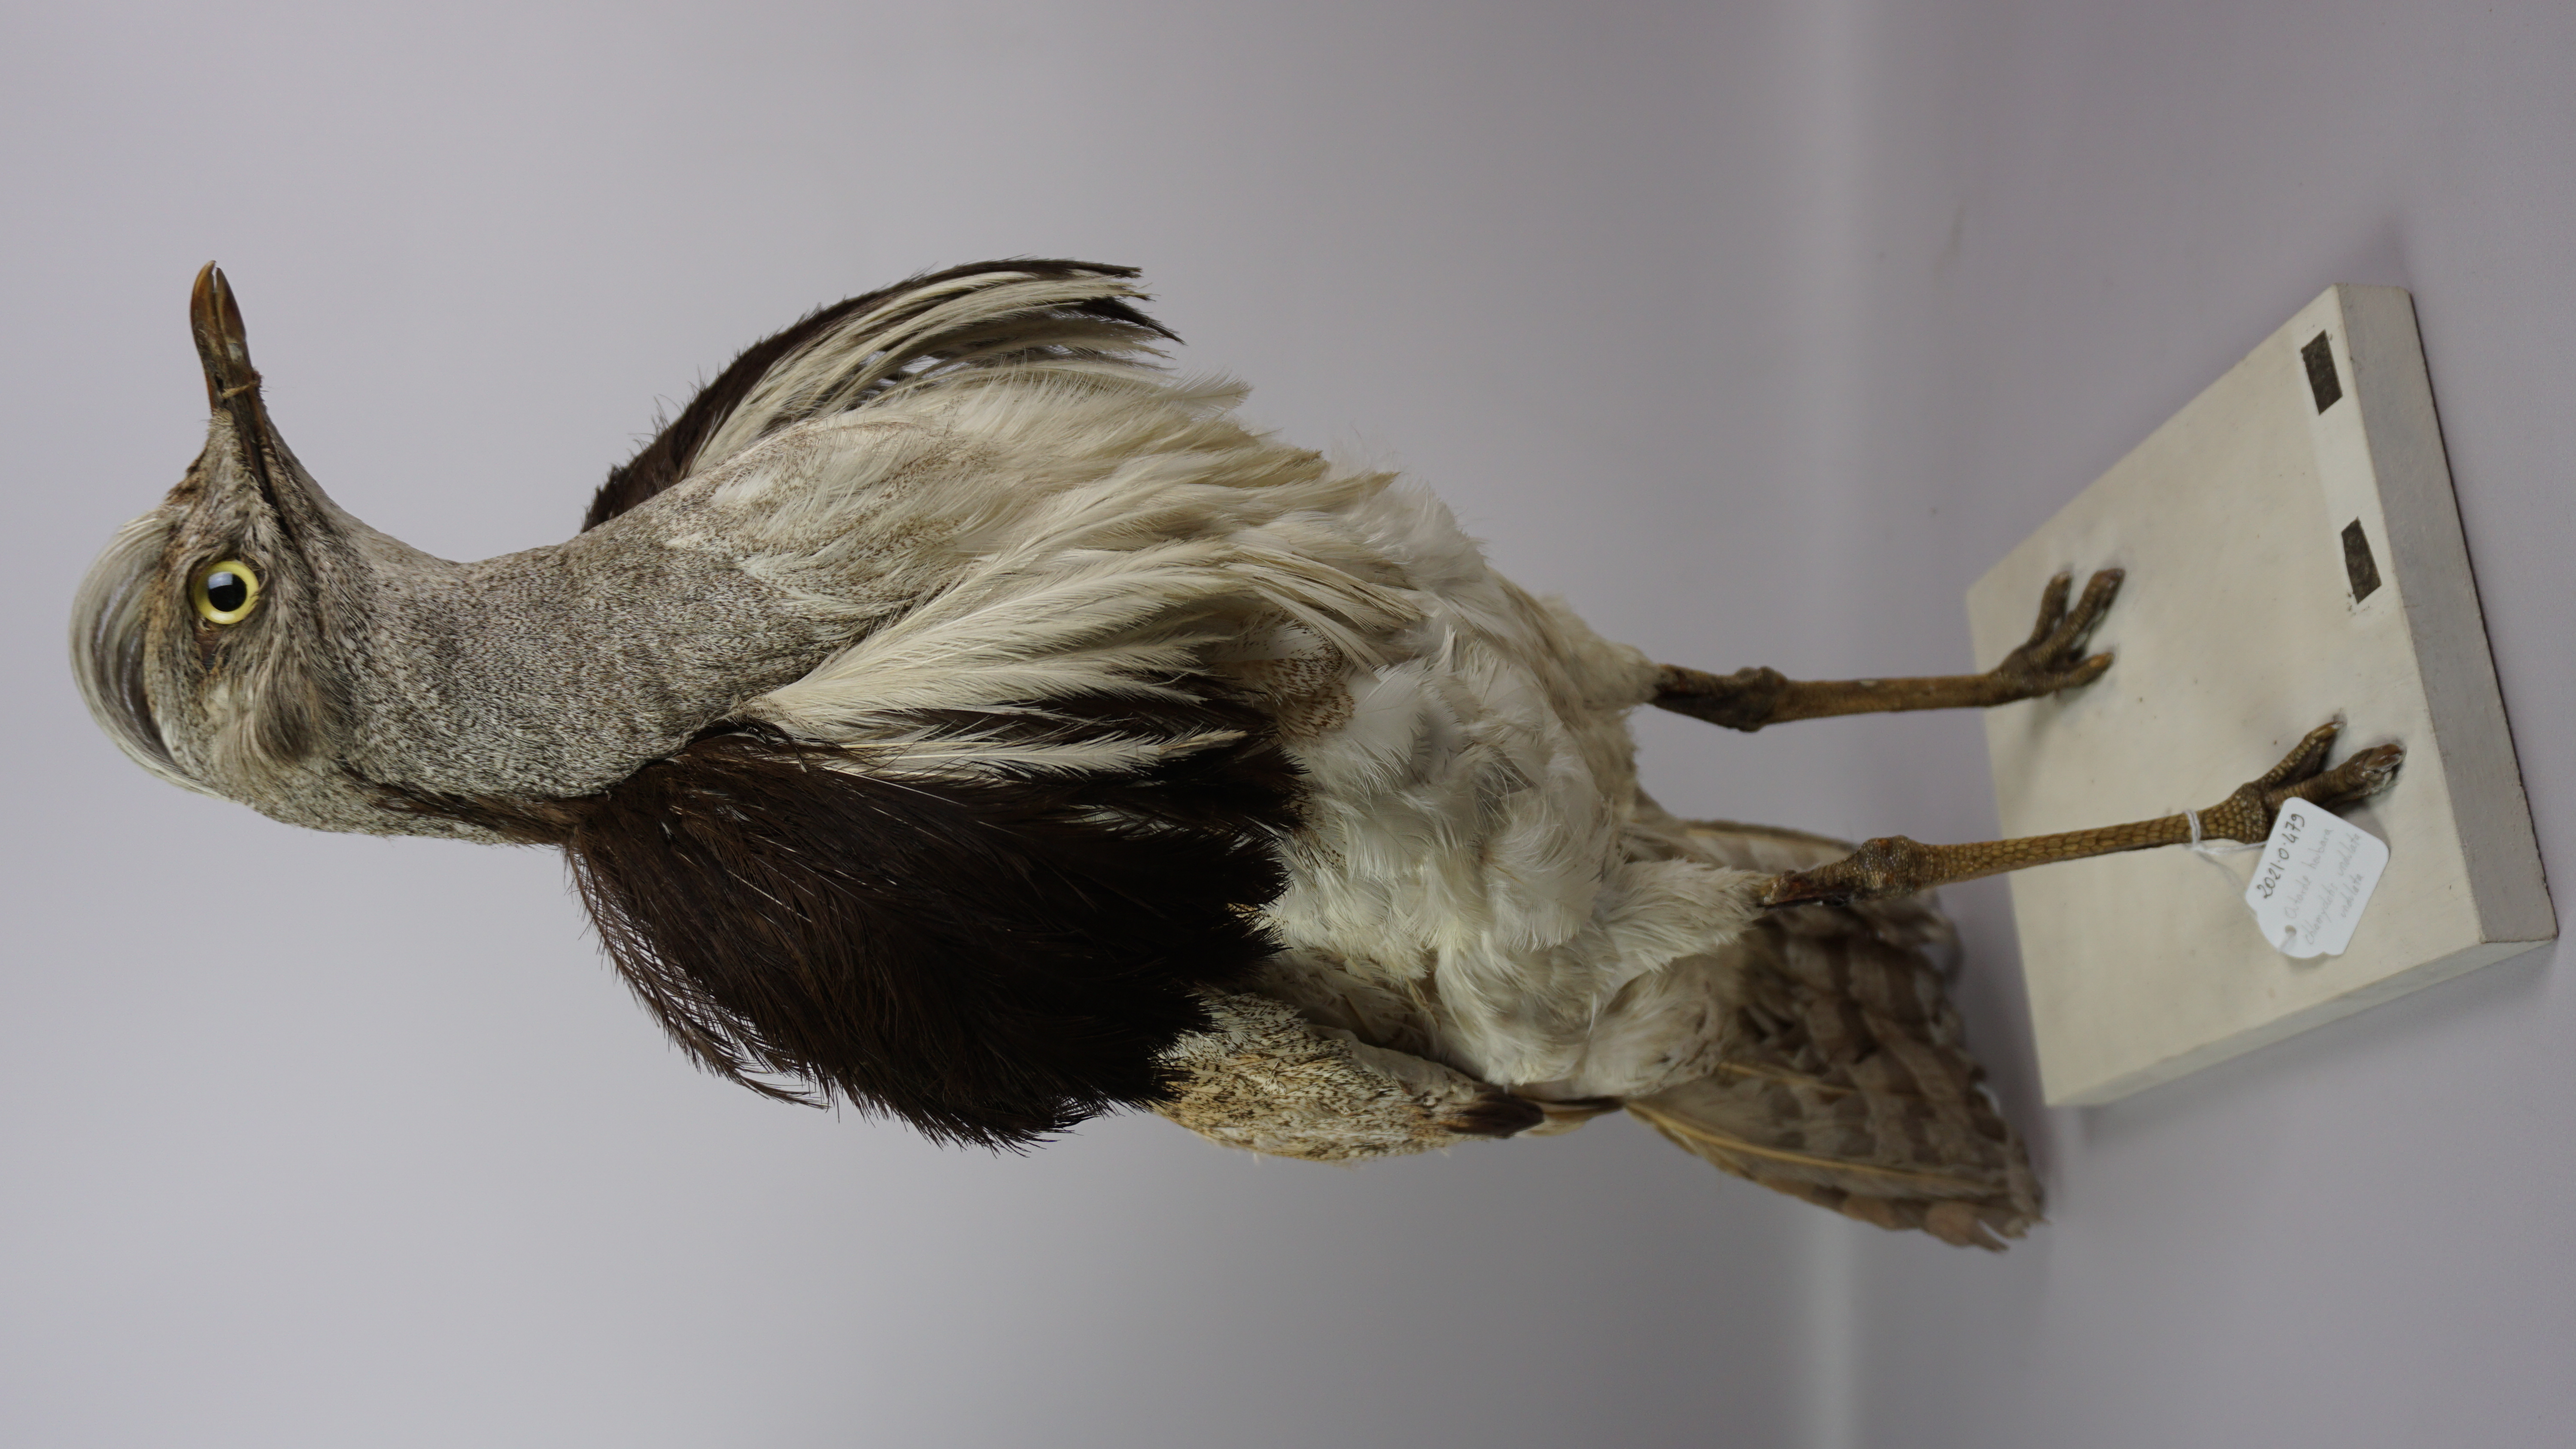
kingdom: Animalia
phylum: Chordata
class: Aves
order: Otidiformes
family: Otididae
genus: Chlamydotis
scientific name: Chlamydotis undulata
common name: Houbara bustard
